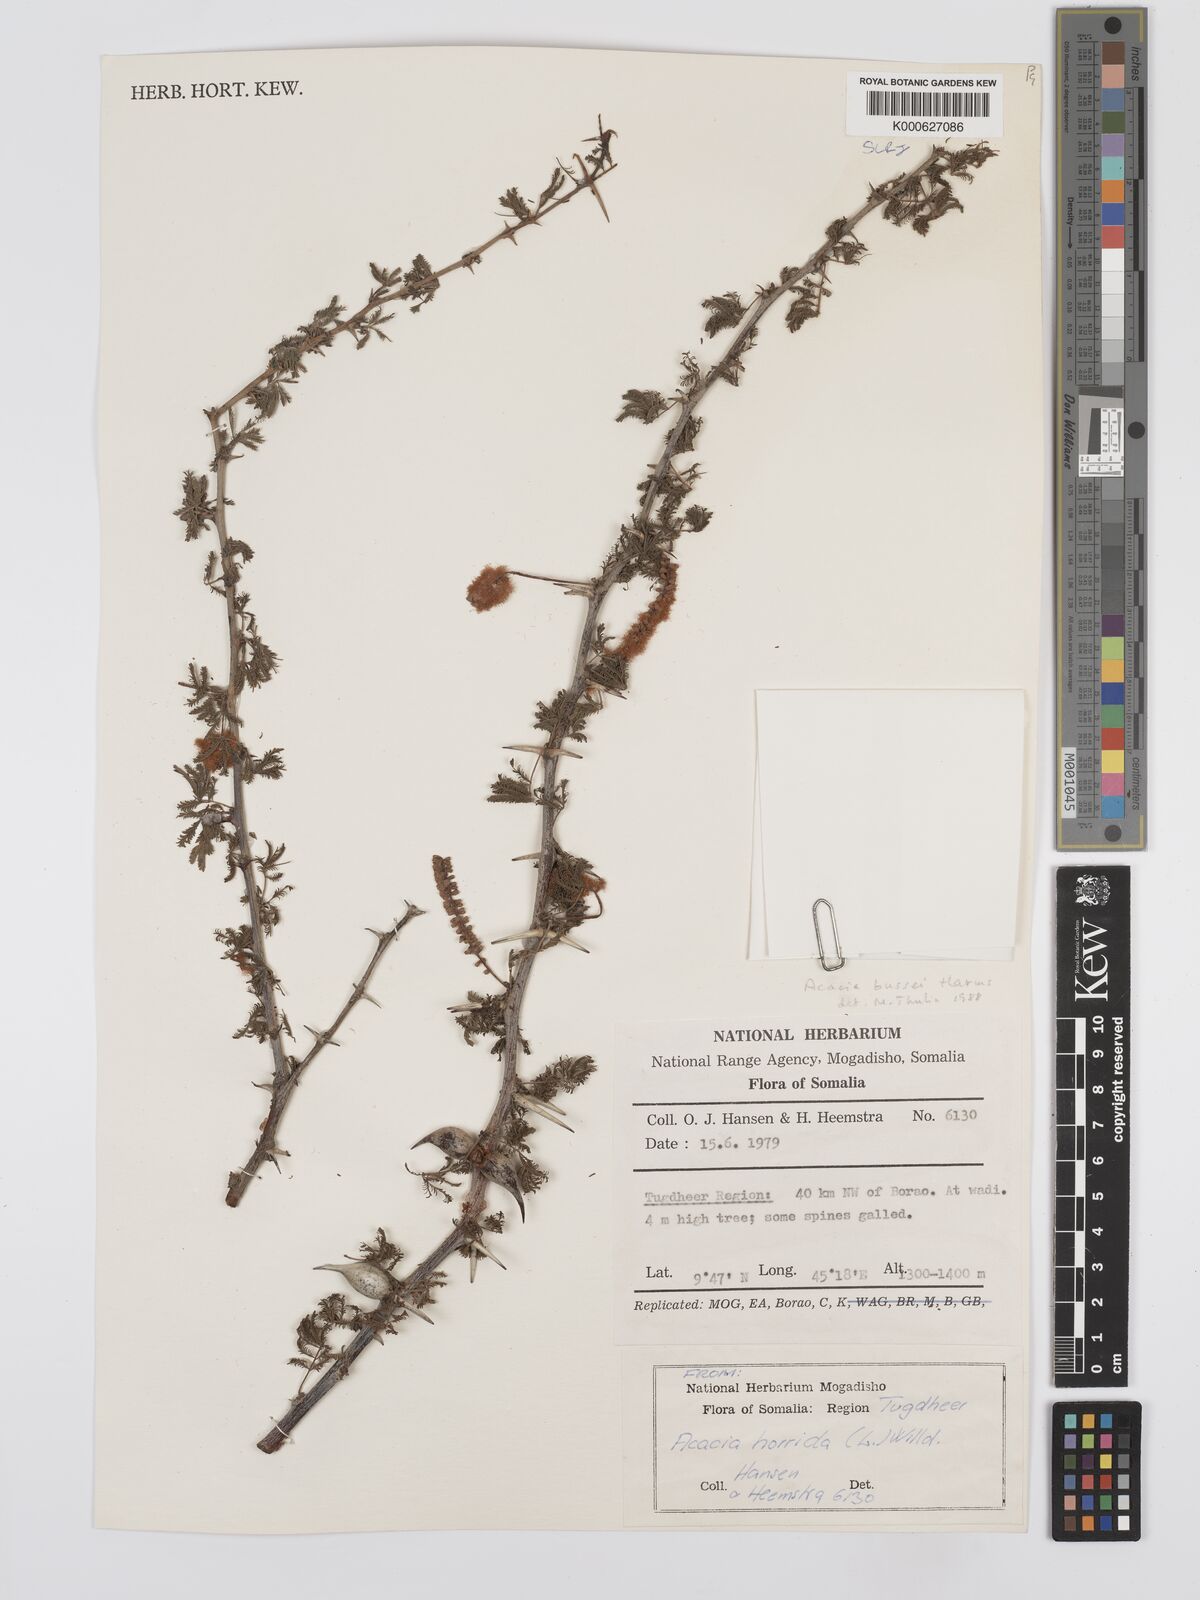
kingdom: Plantae
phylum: Tracheophyta
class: Magnoliopsida
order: Fabales
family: Fabaceae
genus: Vachellia
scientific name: Vachellia bussei
